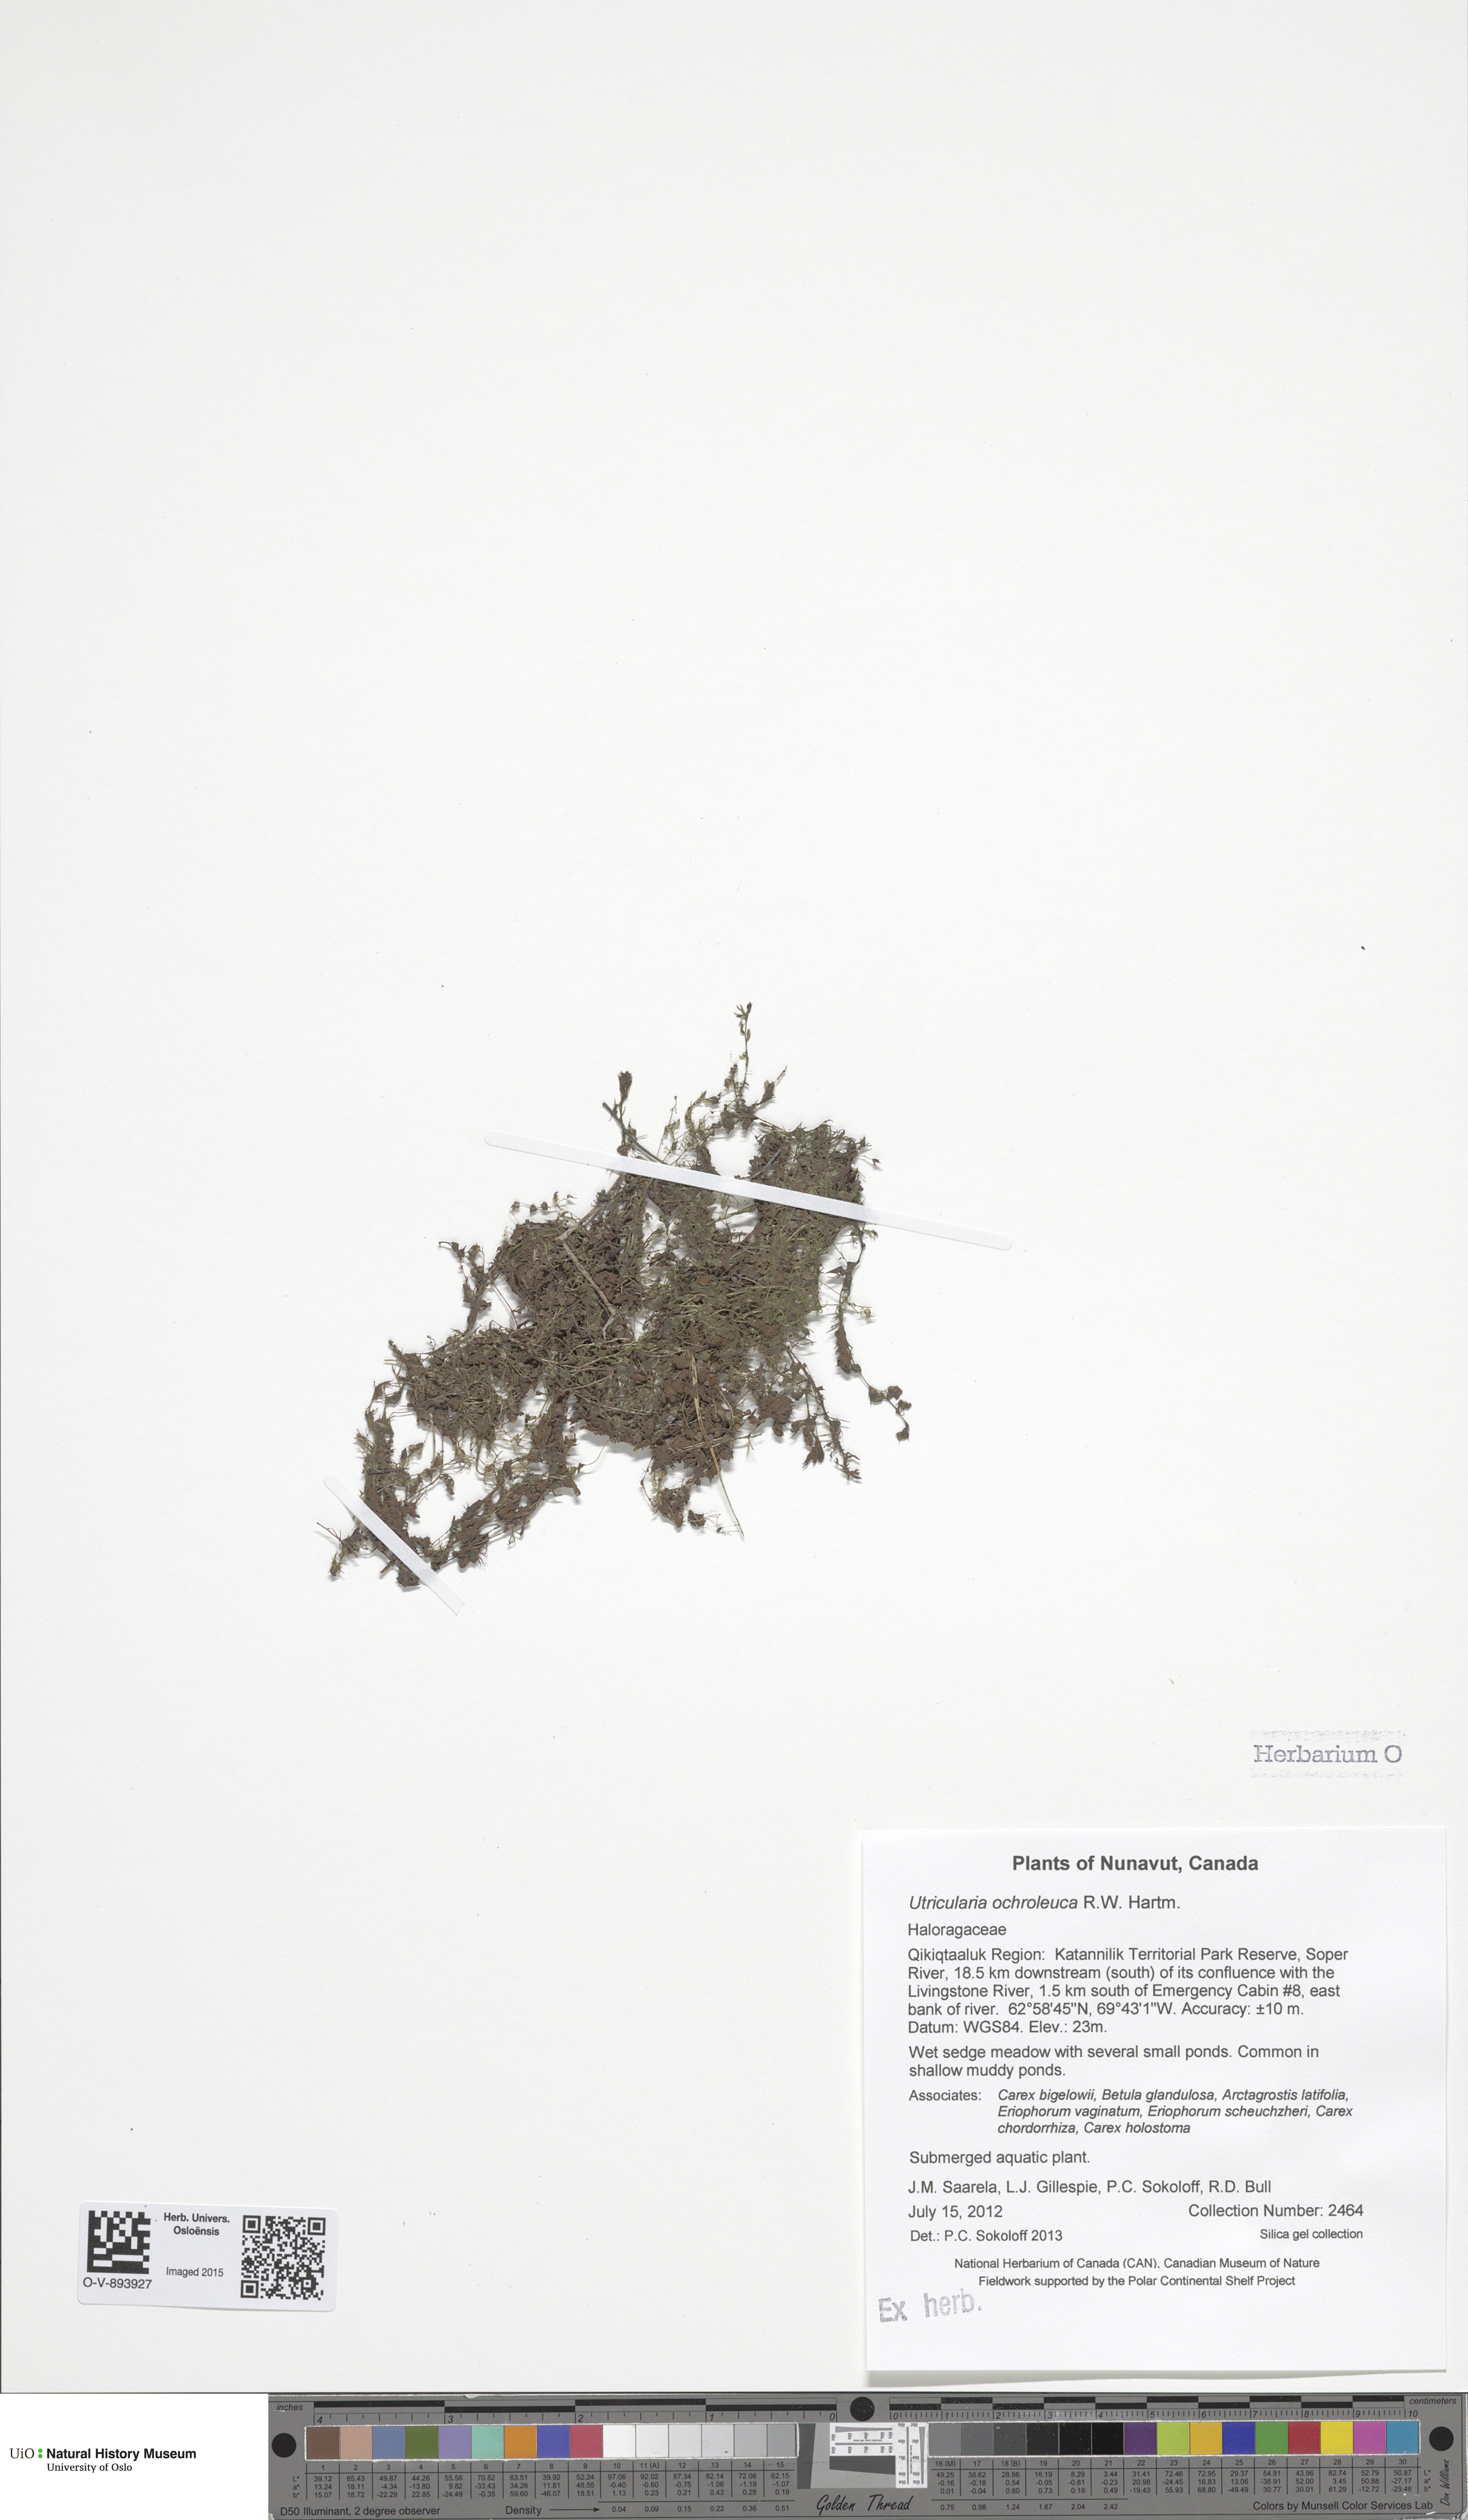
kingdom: Plantae
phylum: Tracheophyta
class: Magnoliopsida
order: Lamiales
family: Lentibulariaceae
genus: Utricularia
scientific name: Utricularia vulgaris
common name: Greater bladderwort
